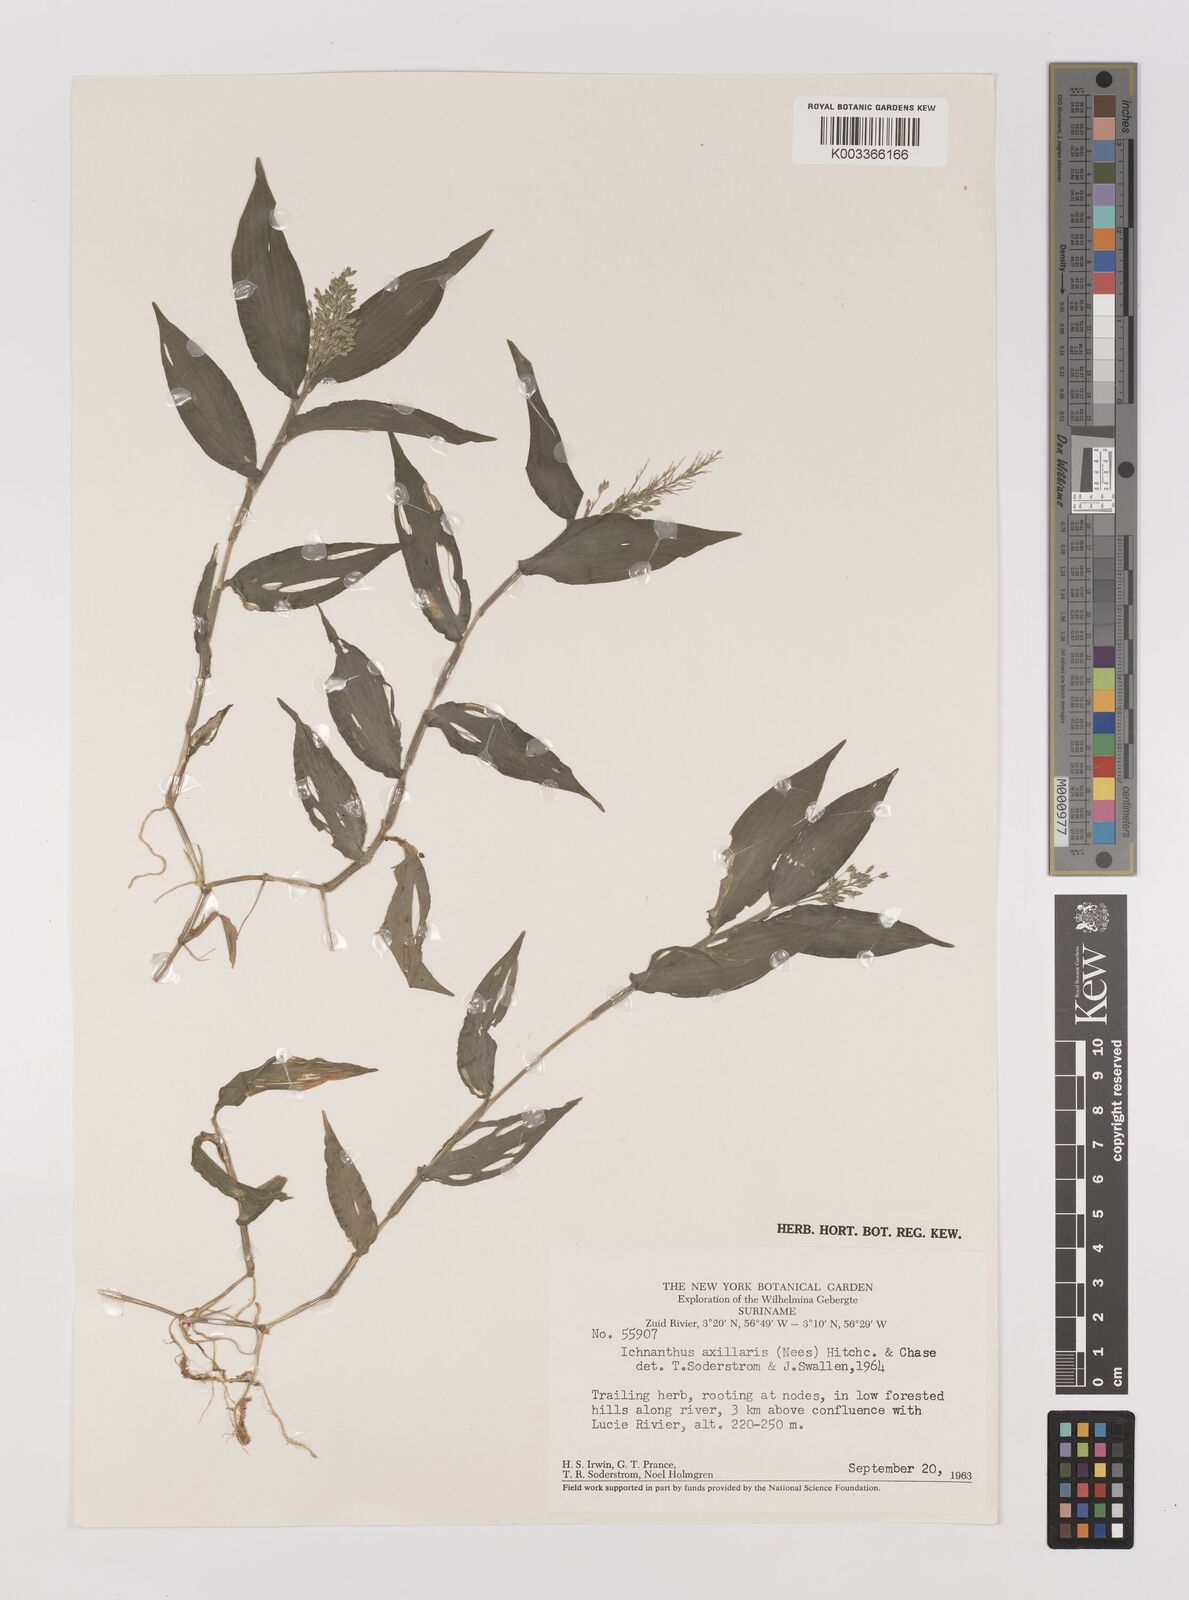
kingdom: Plantae
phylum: Tracheophyta
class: Liliopsida
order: Poales
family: Poaceae
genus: Ichnanthus
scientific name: Ichnanthus pallens
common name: Water grass
